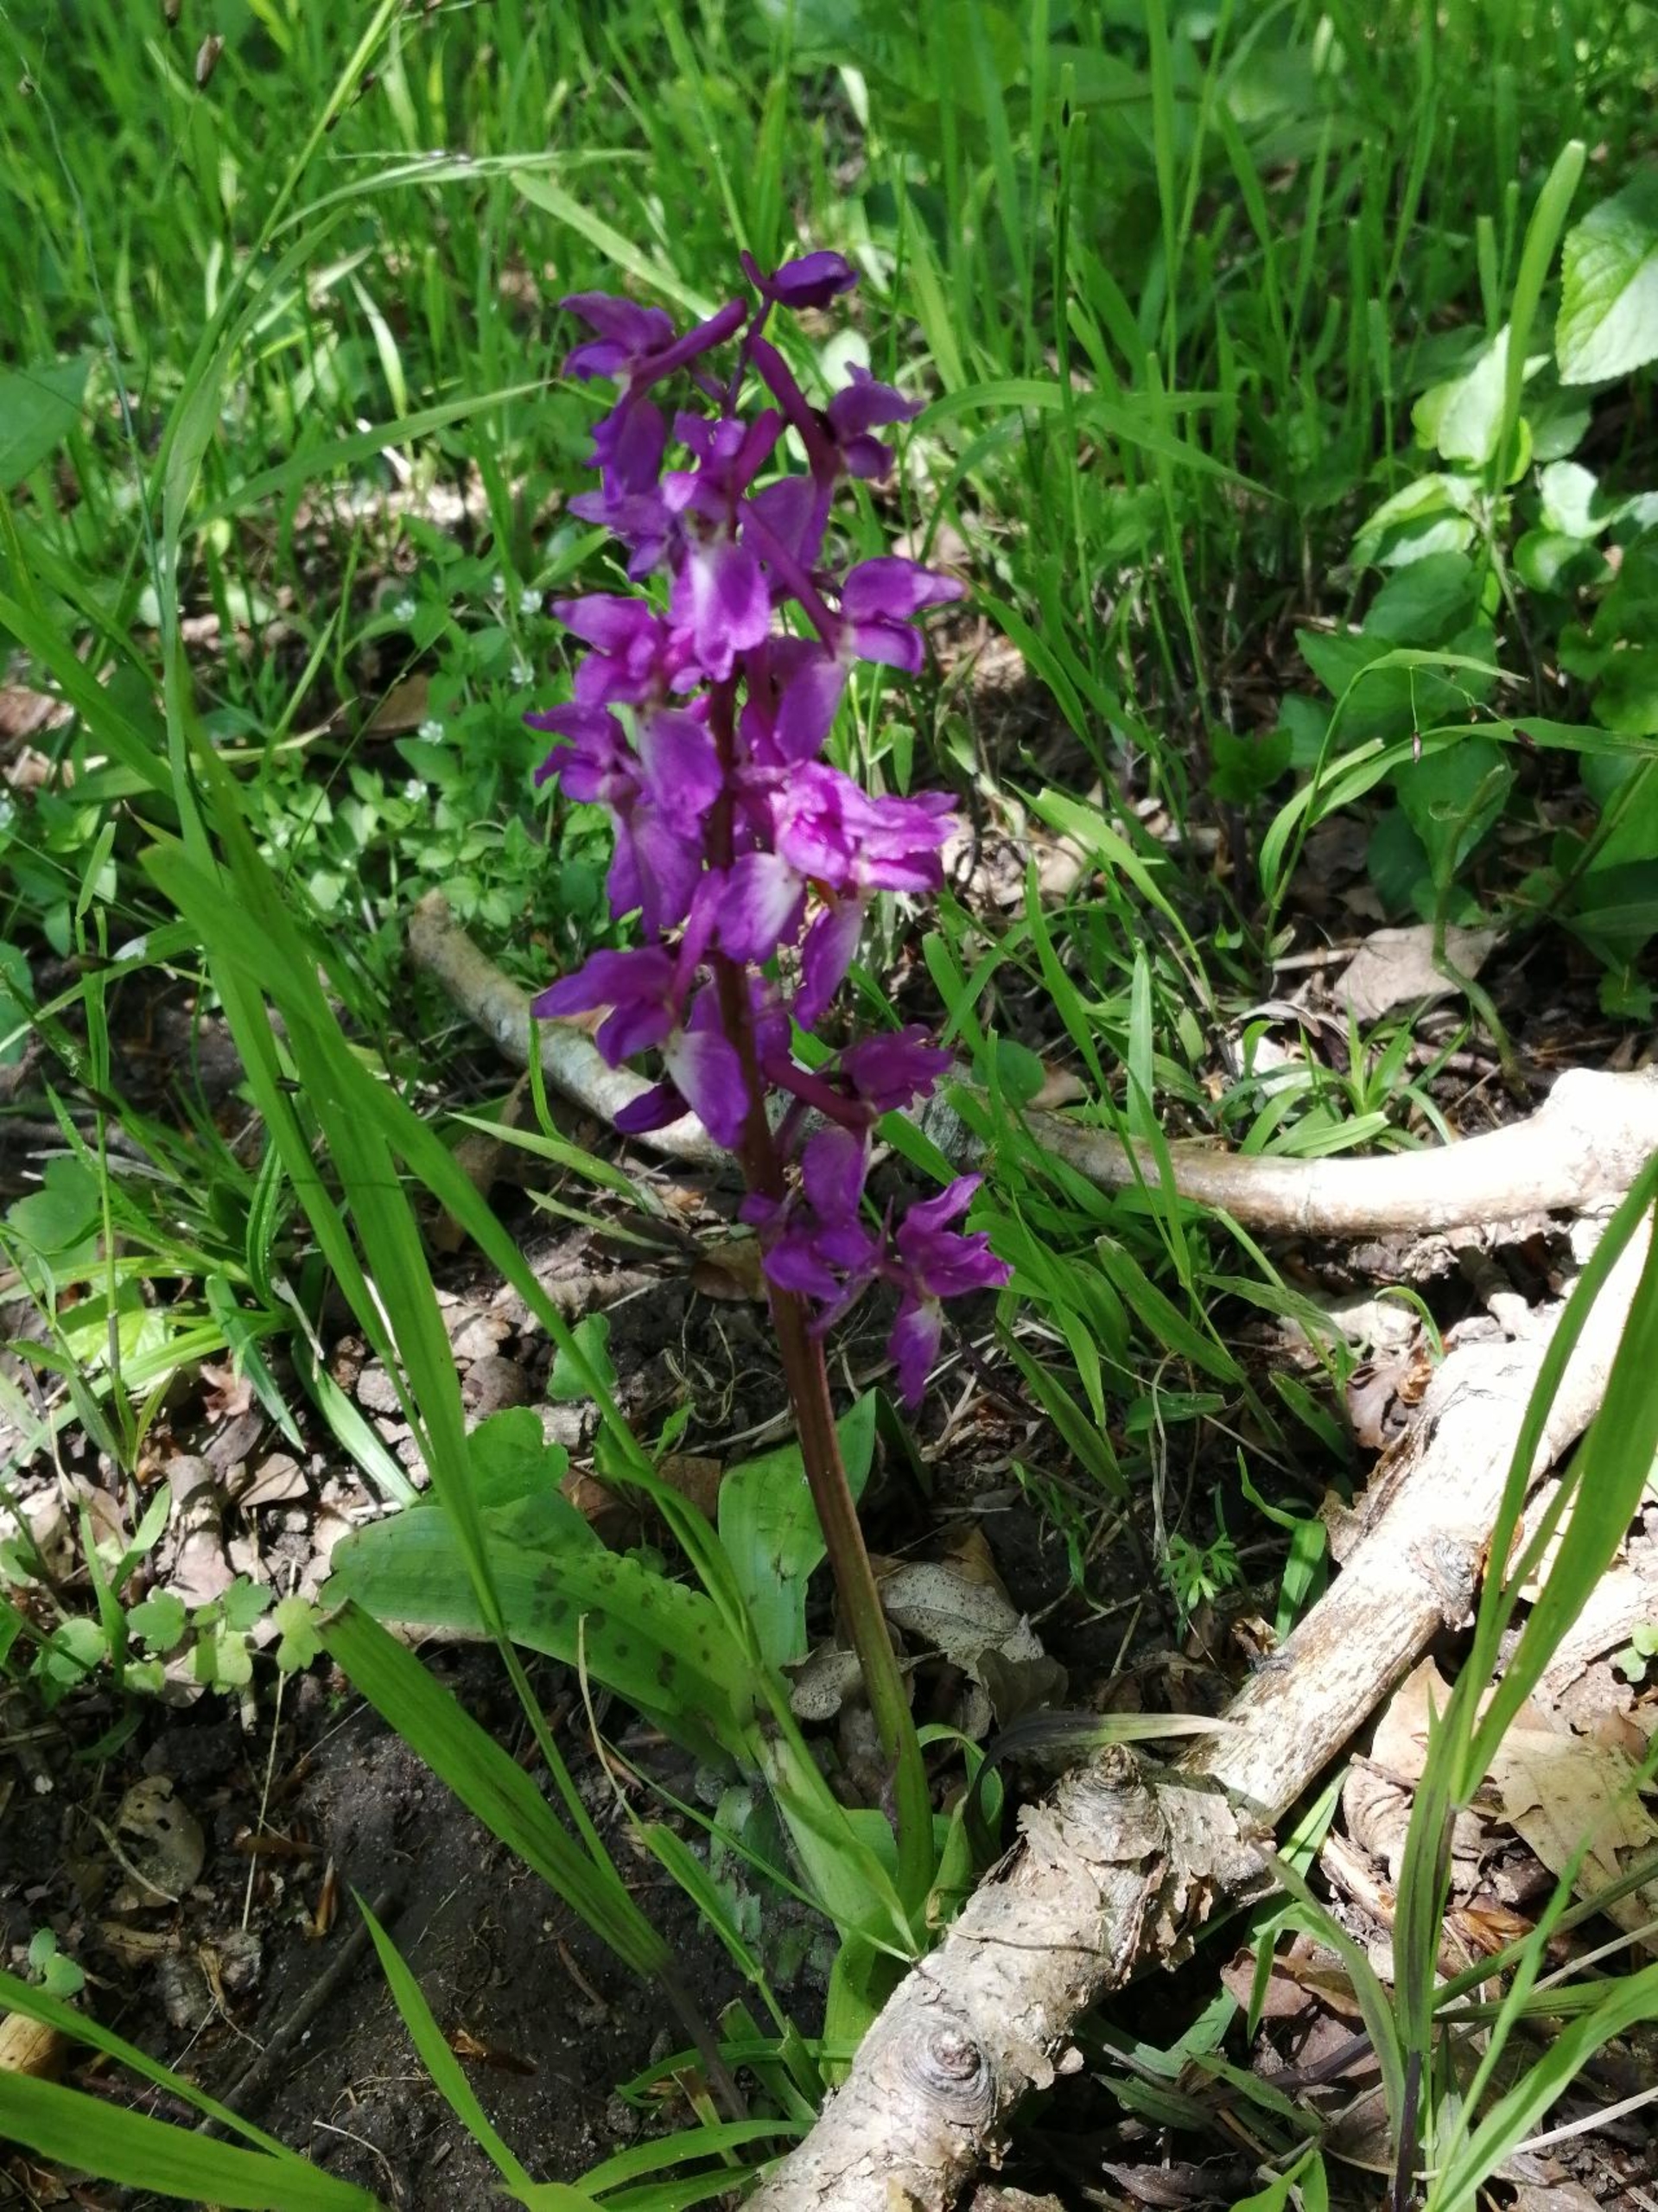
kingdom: Plantae
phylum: Tracheophyta
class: Liliopsida
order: Asparagales
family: Orchidaceae
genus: Orchis
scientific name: Orchis mascula
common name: Tyndakset gøgeurt
